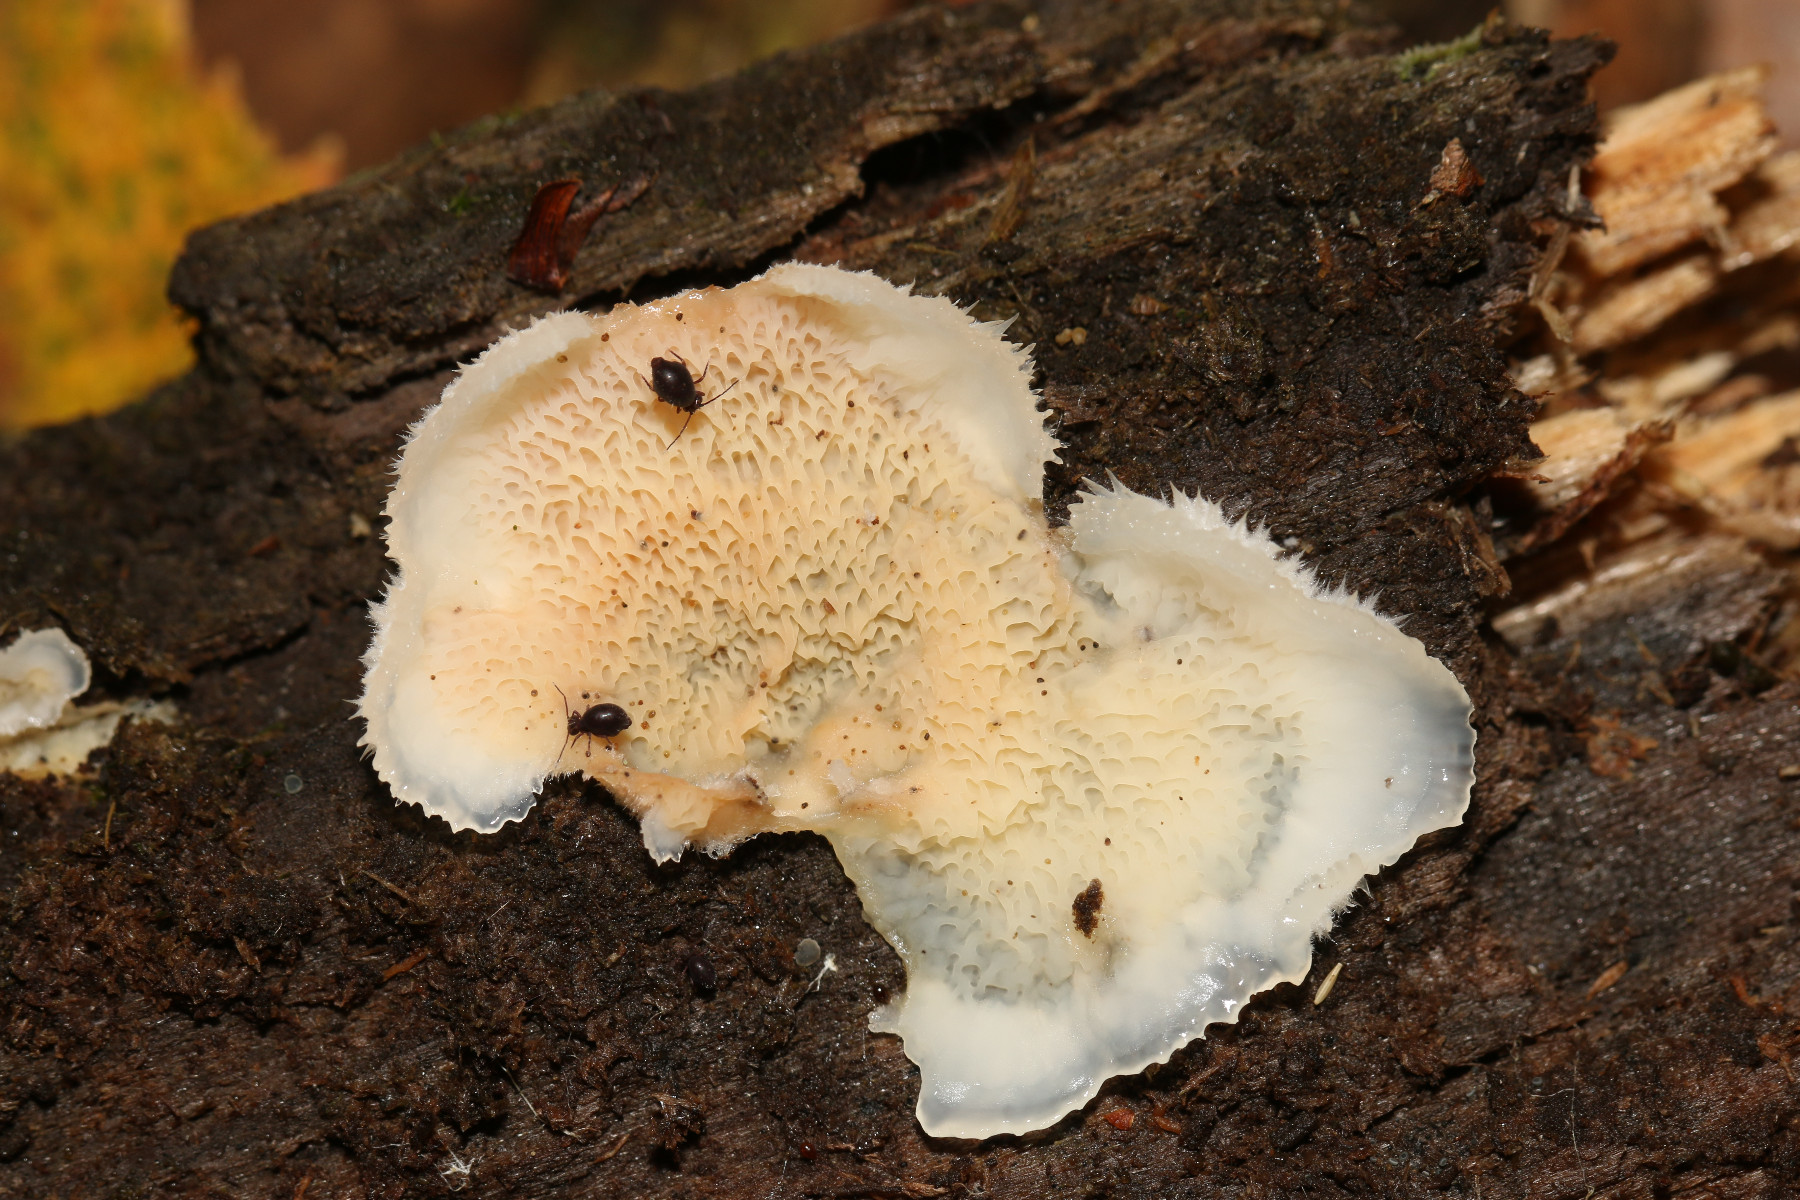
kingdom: Fungi
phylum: Basidiomycota
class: Agaricomycetes
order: Polyporales
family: Meruliaceae
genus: Phlebia
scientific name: Phlebia tremellosa
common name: bævrende åresvamp
